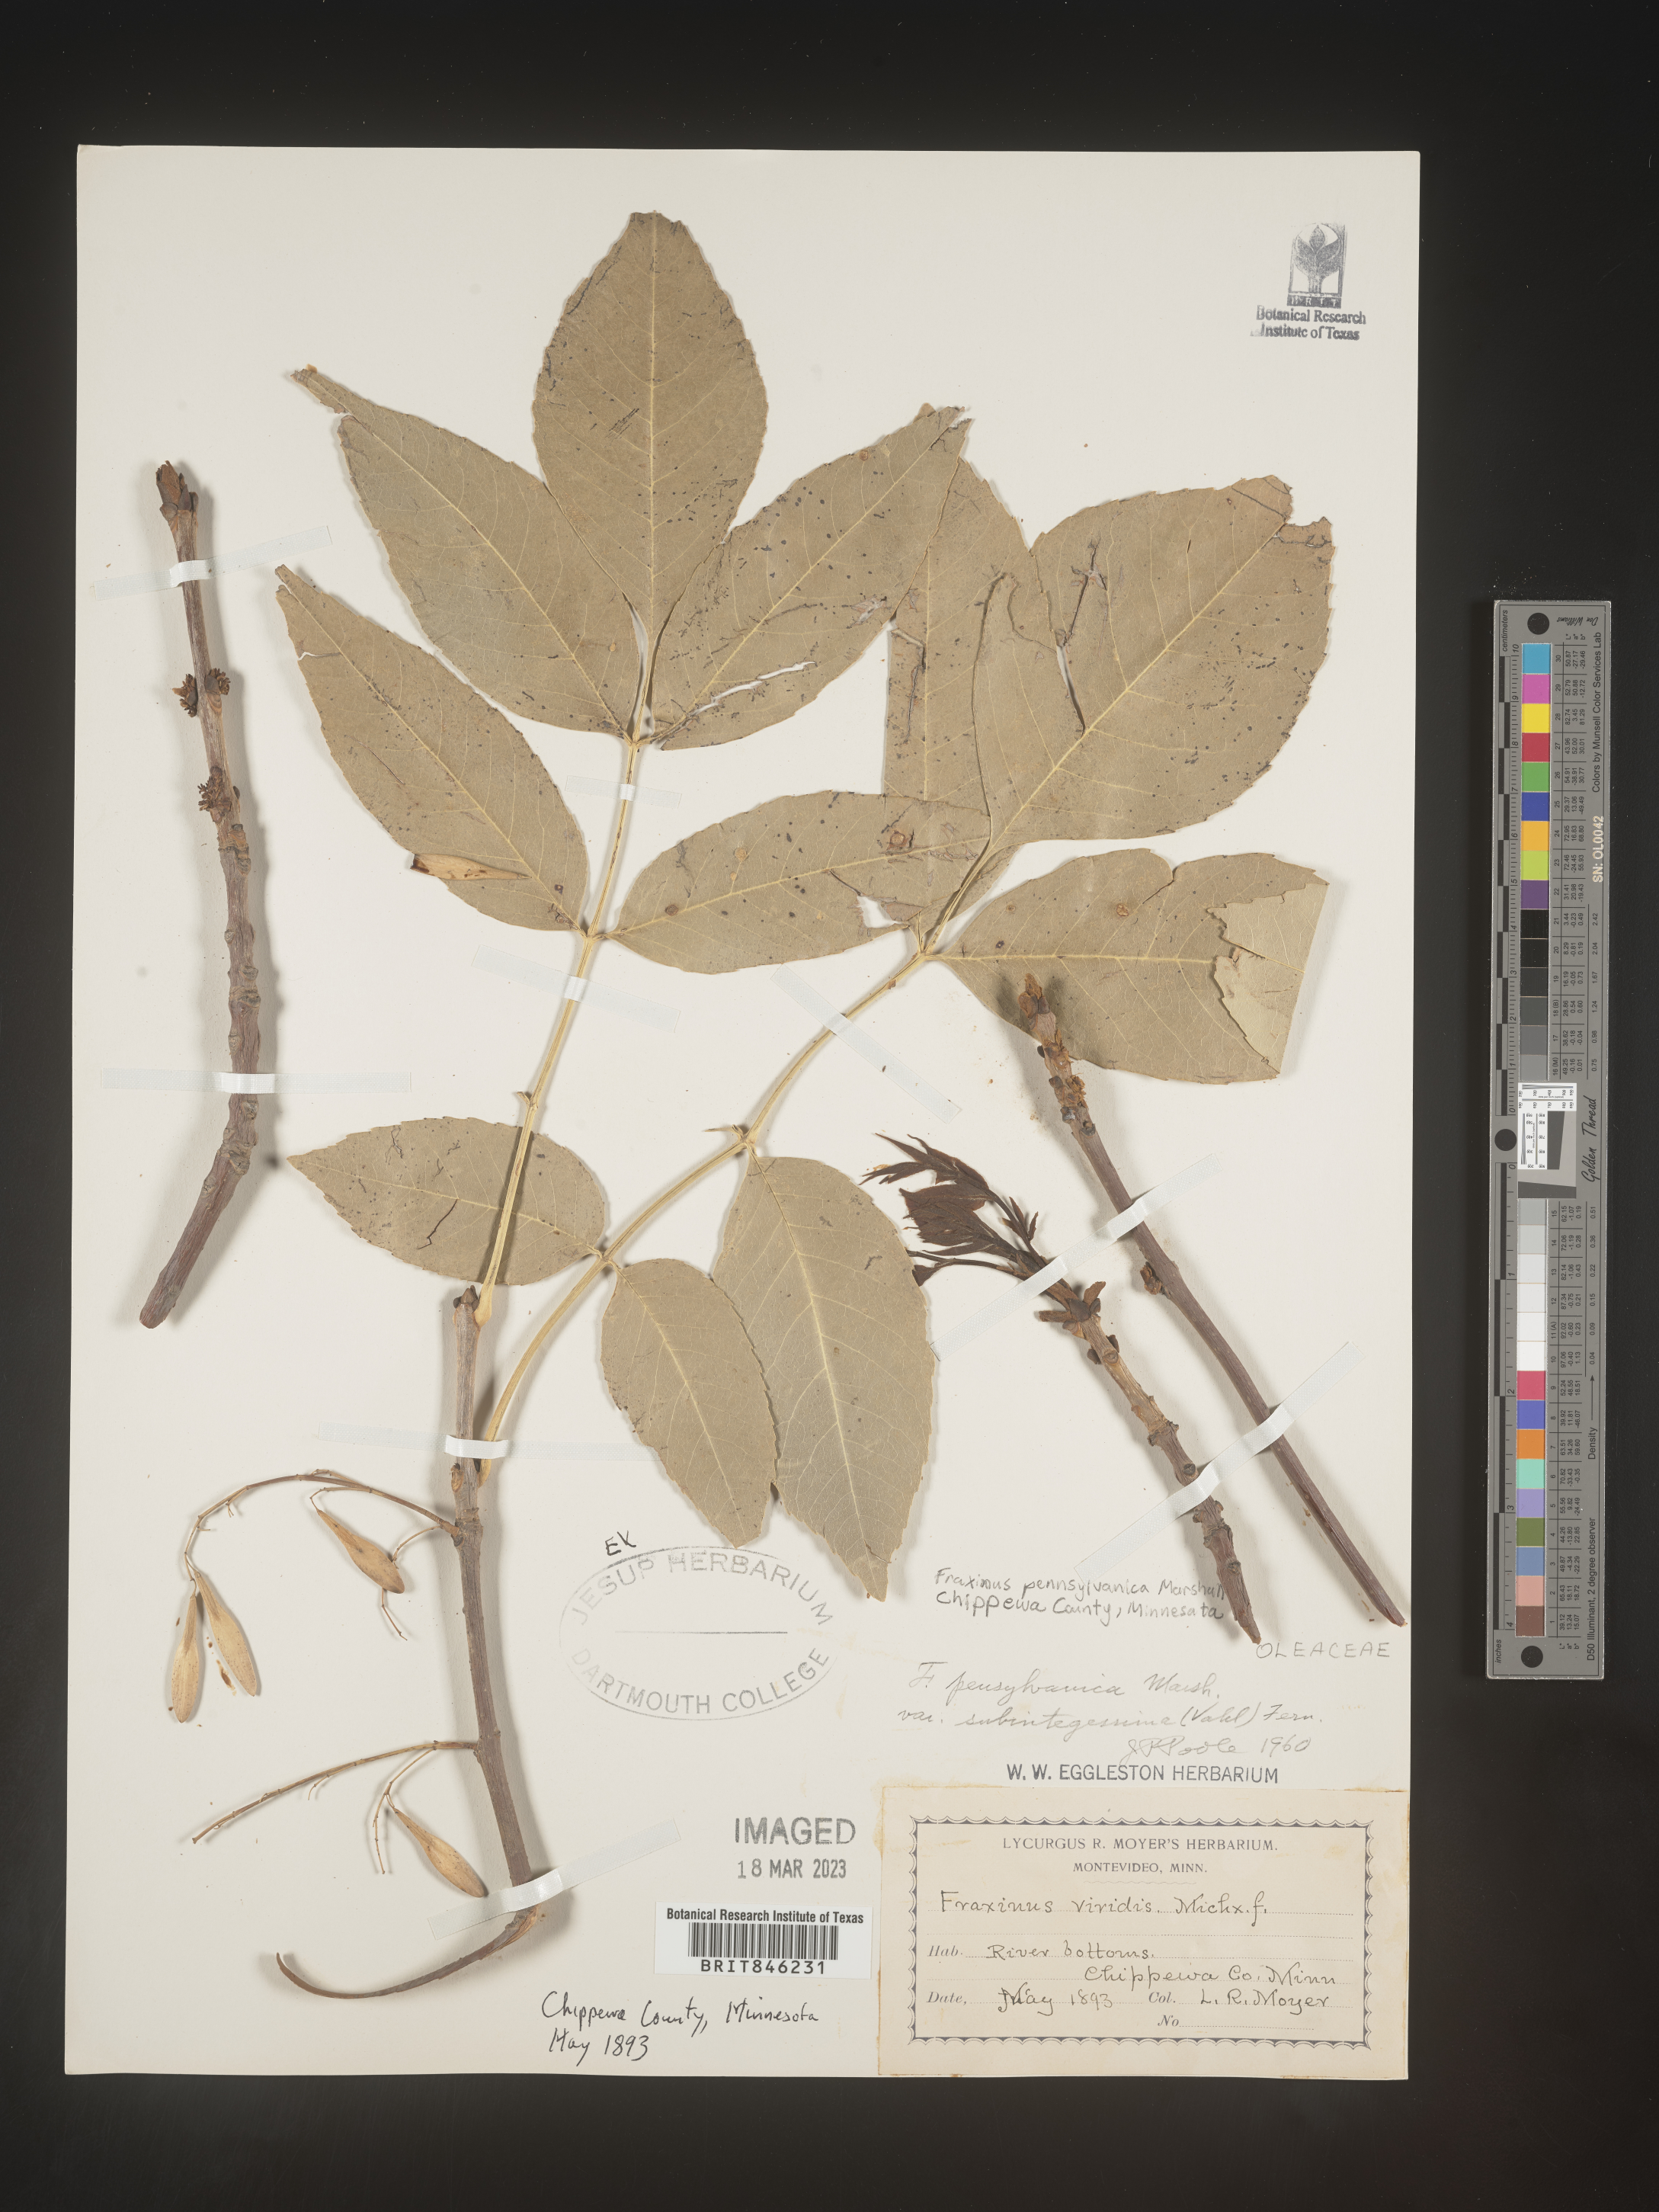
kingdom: Plantae
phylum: Tracheophyta
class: Magnoliopsida
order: Lamiales
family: Oleaceae
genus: Fraxinus
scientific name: Fraxinus pennsylvanica
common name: Green ash
